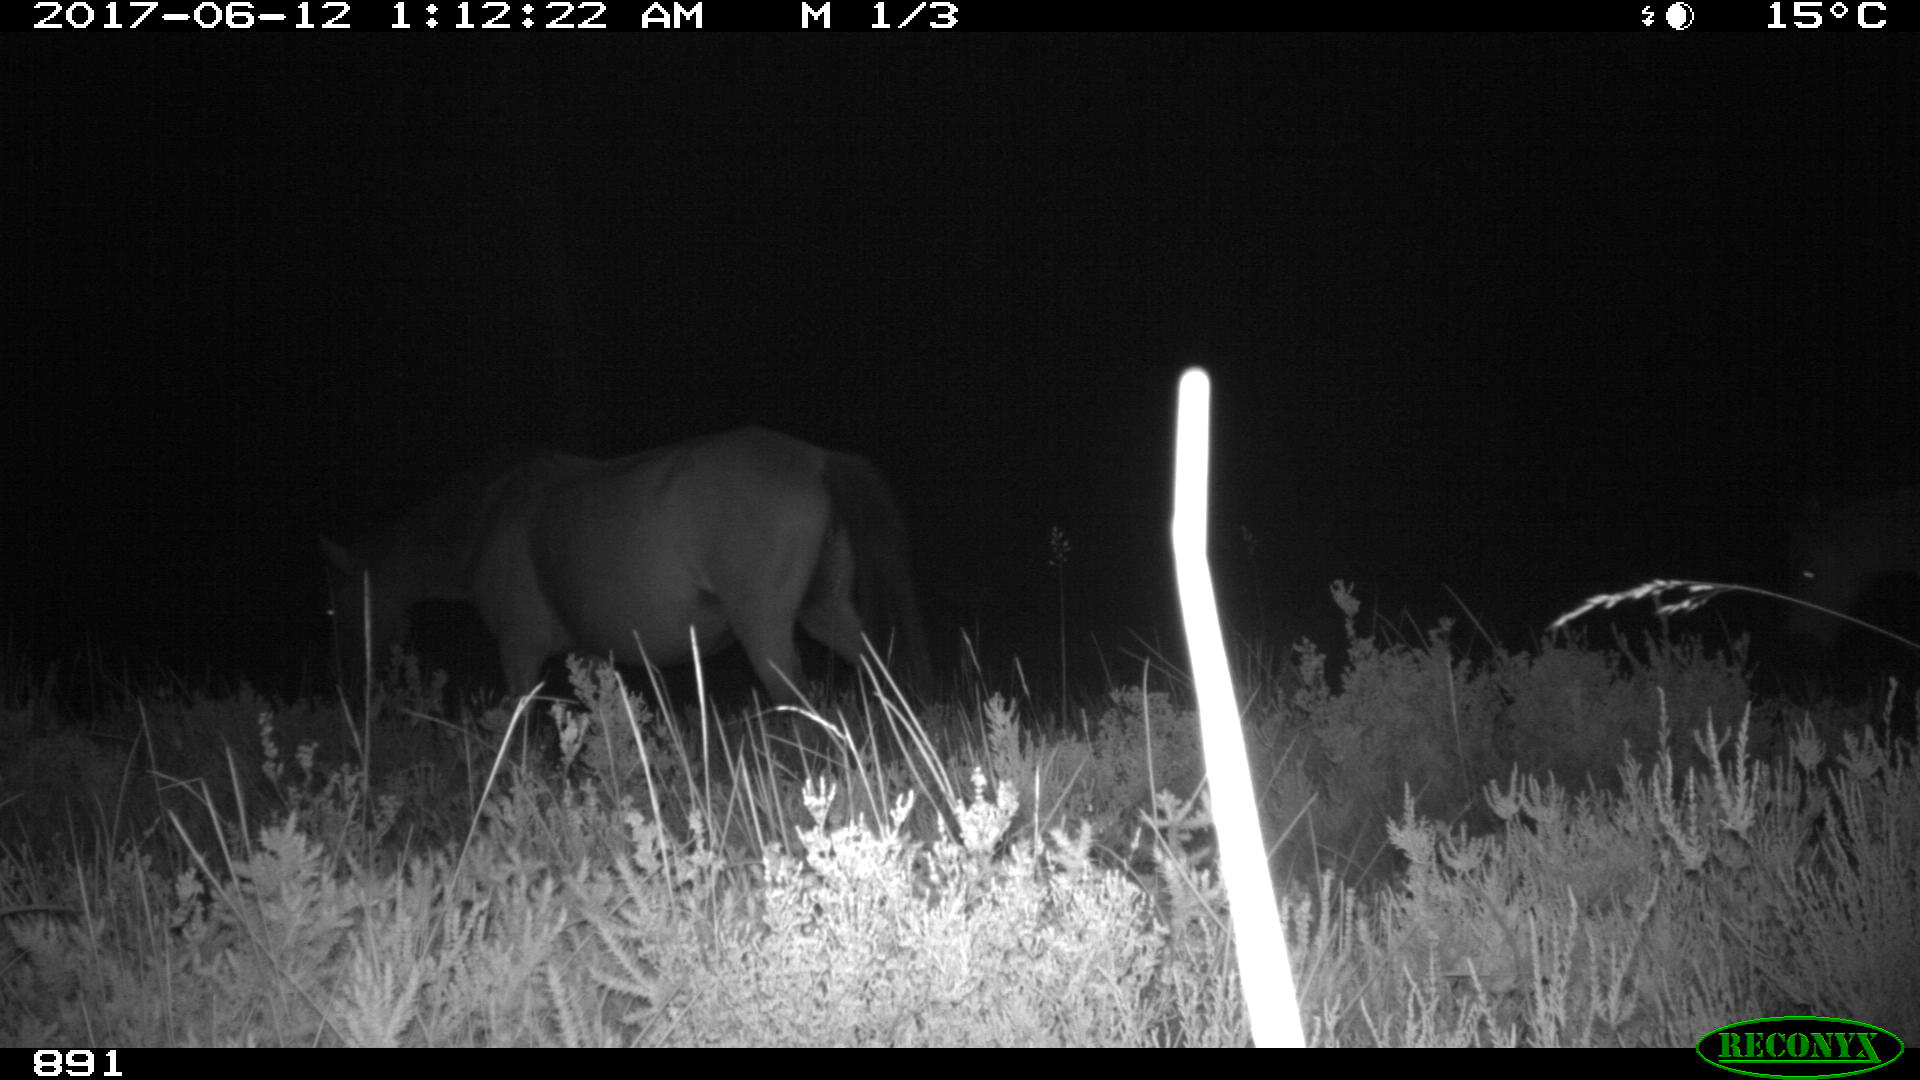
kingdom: Animalia
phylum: Chordata
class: Mammalia
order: Perissodactyla
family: Equidae
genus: Equus
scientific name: Equus caballus
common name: Horse
